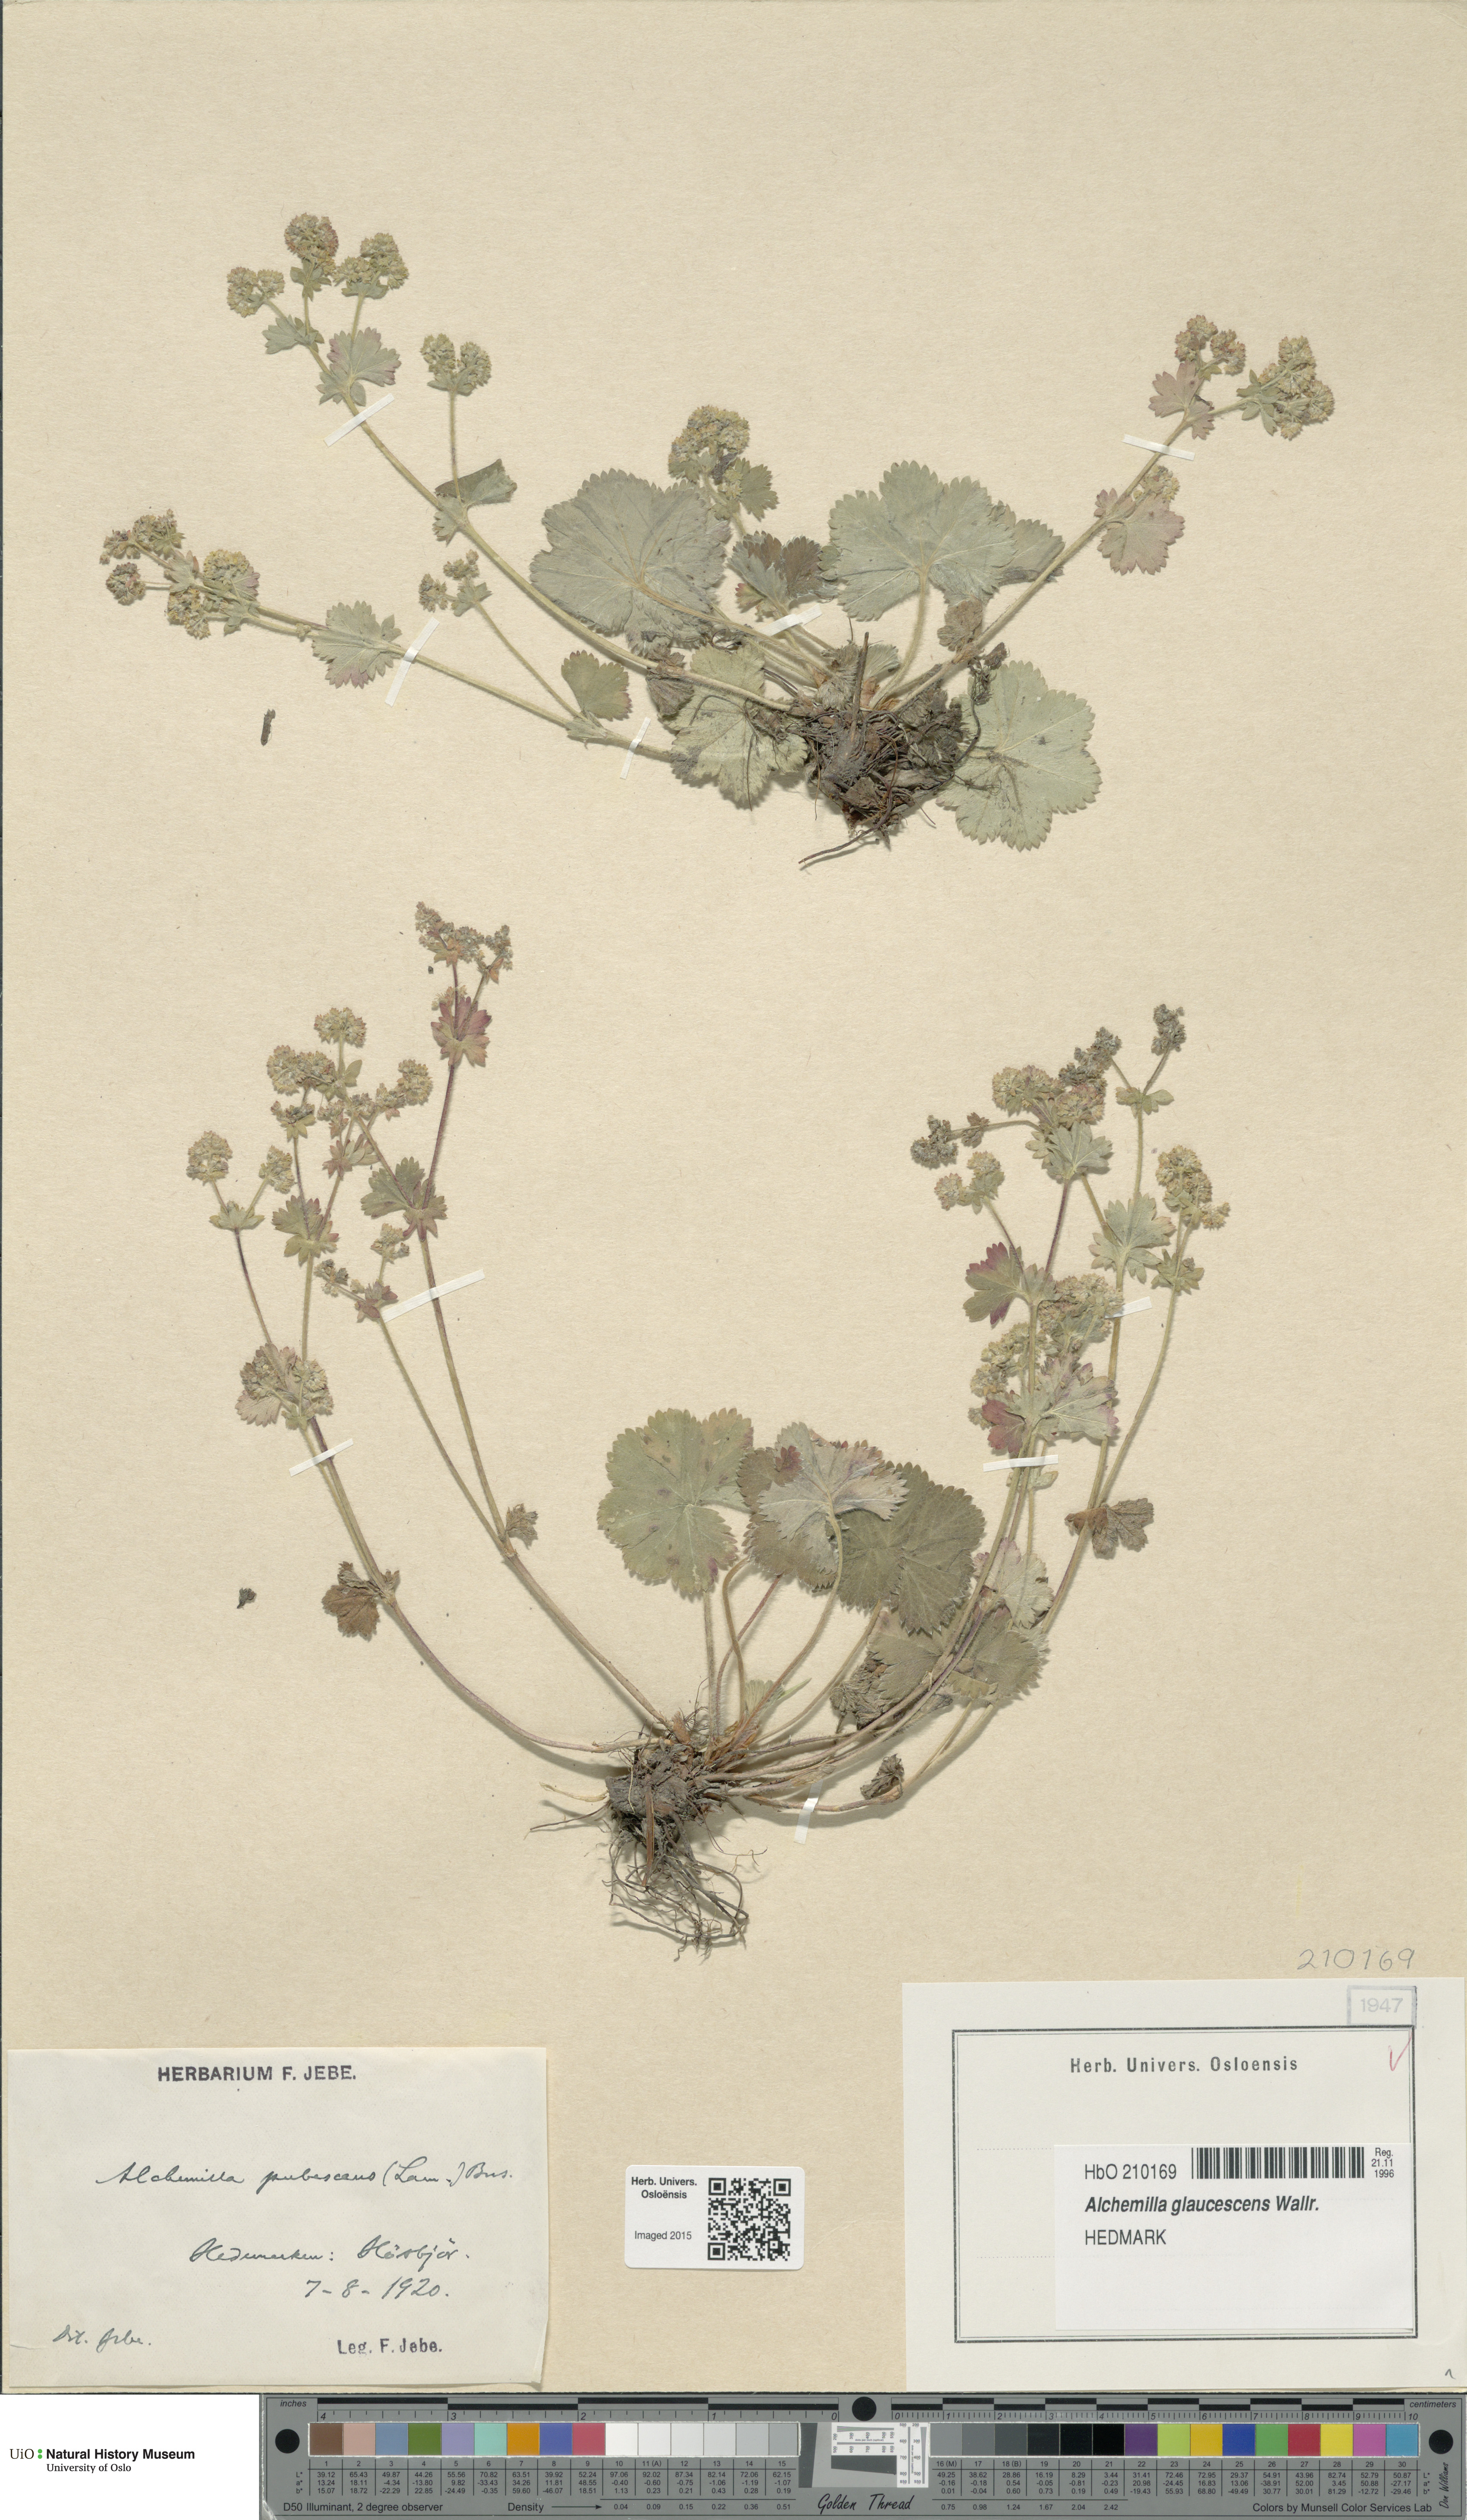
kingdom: Plantae
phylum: Tracheophyta
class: Magnoliopsida
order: Rosales
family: Rosaceae
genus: Alchemilla
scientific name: Alchemilla glaucescens
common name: Silky lady's mantle
